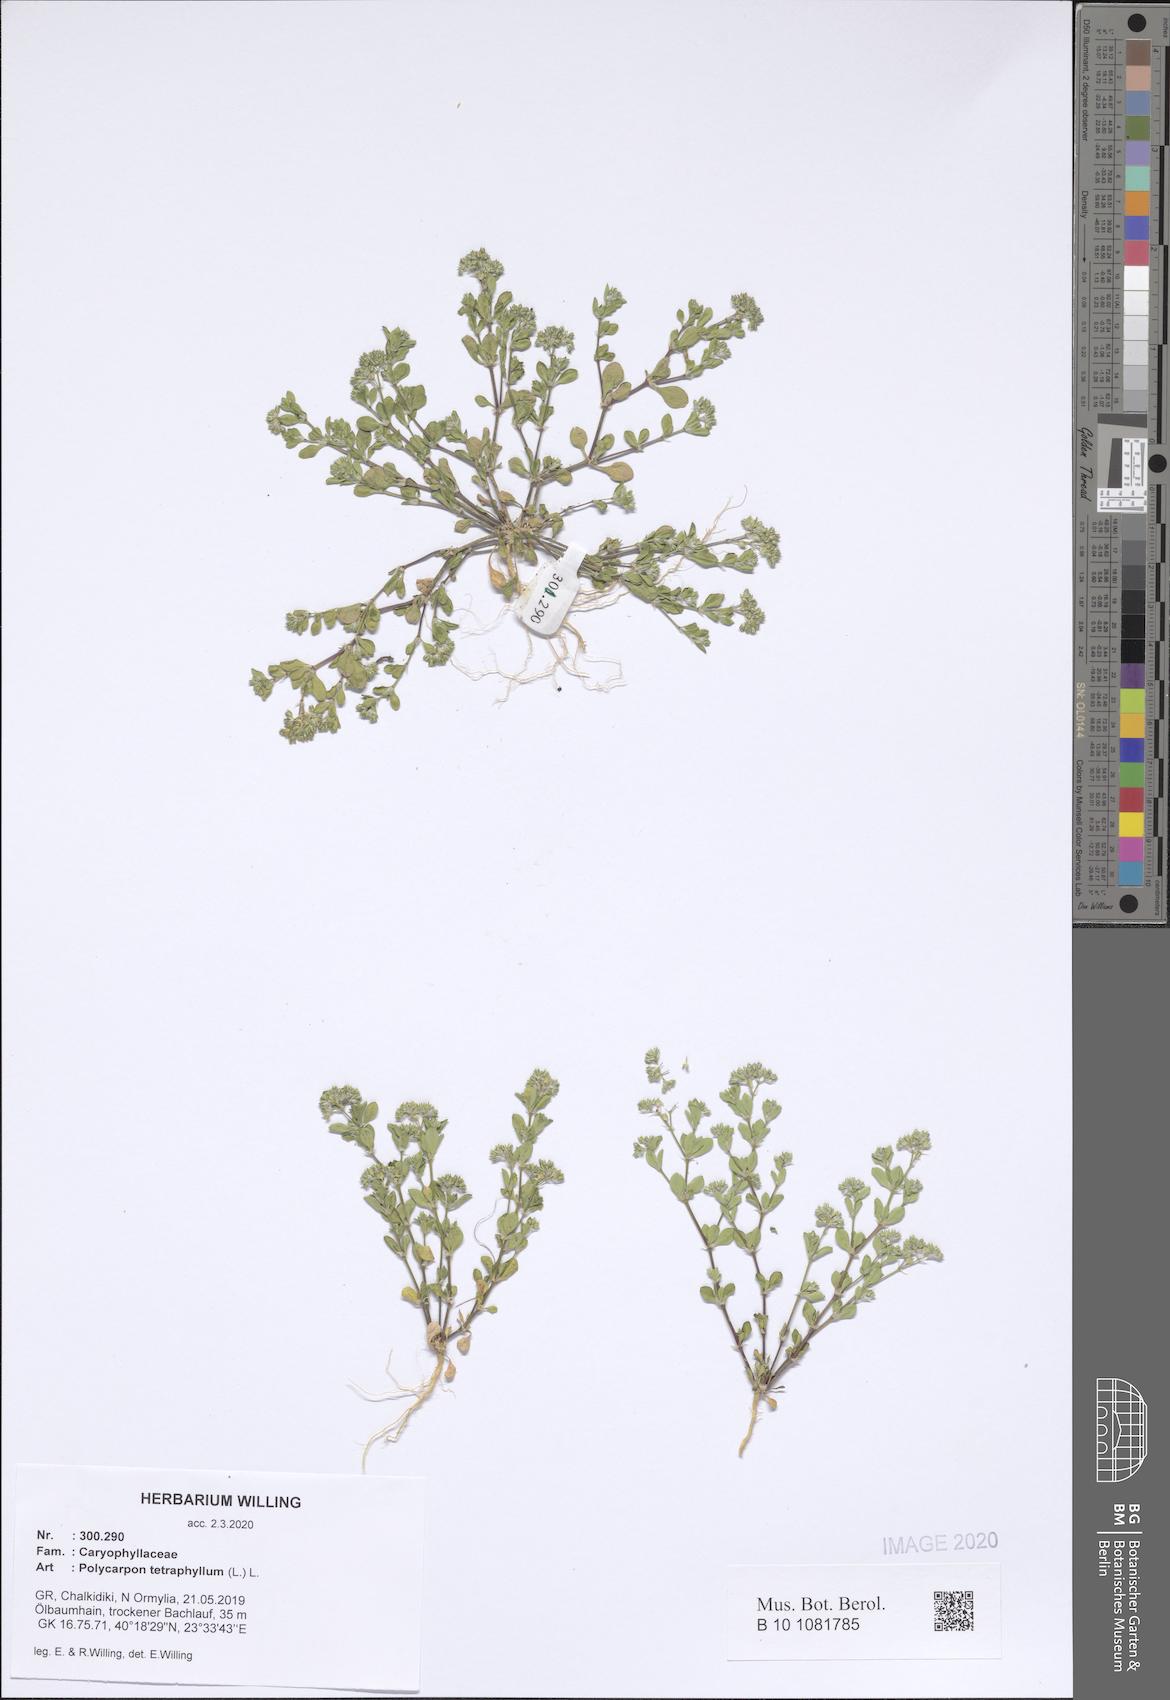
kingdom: Plantae
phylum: Tracheophyta
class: Magnoliopsida
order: Caryophyllales
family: Caryophyllaceae
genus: Polycarpon
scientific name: Polycarpon tetraphyllum
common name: Four-leaved all-seed
